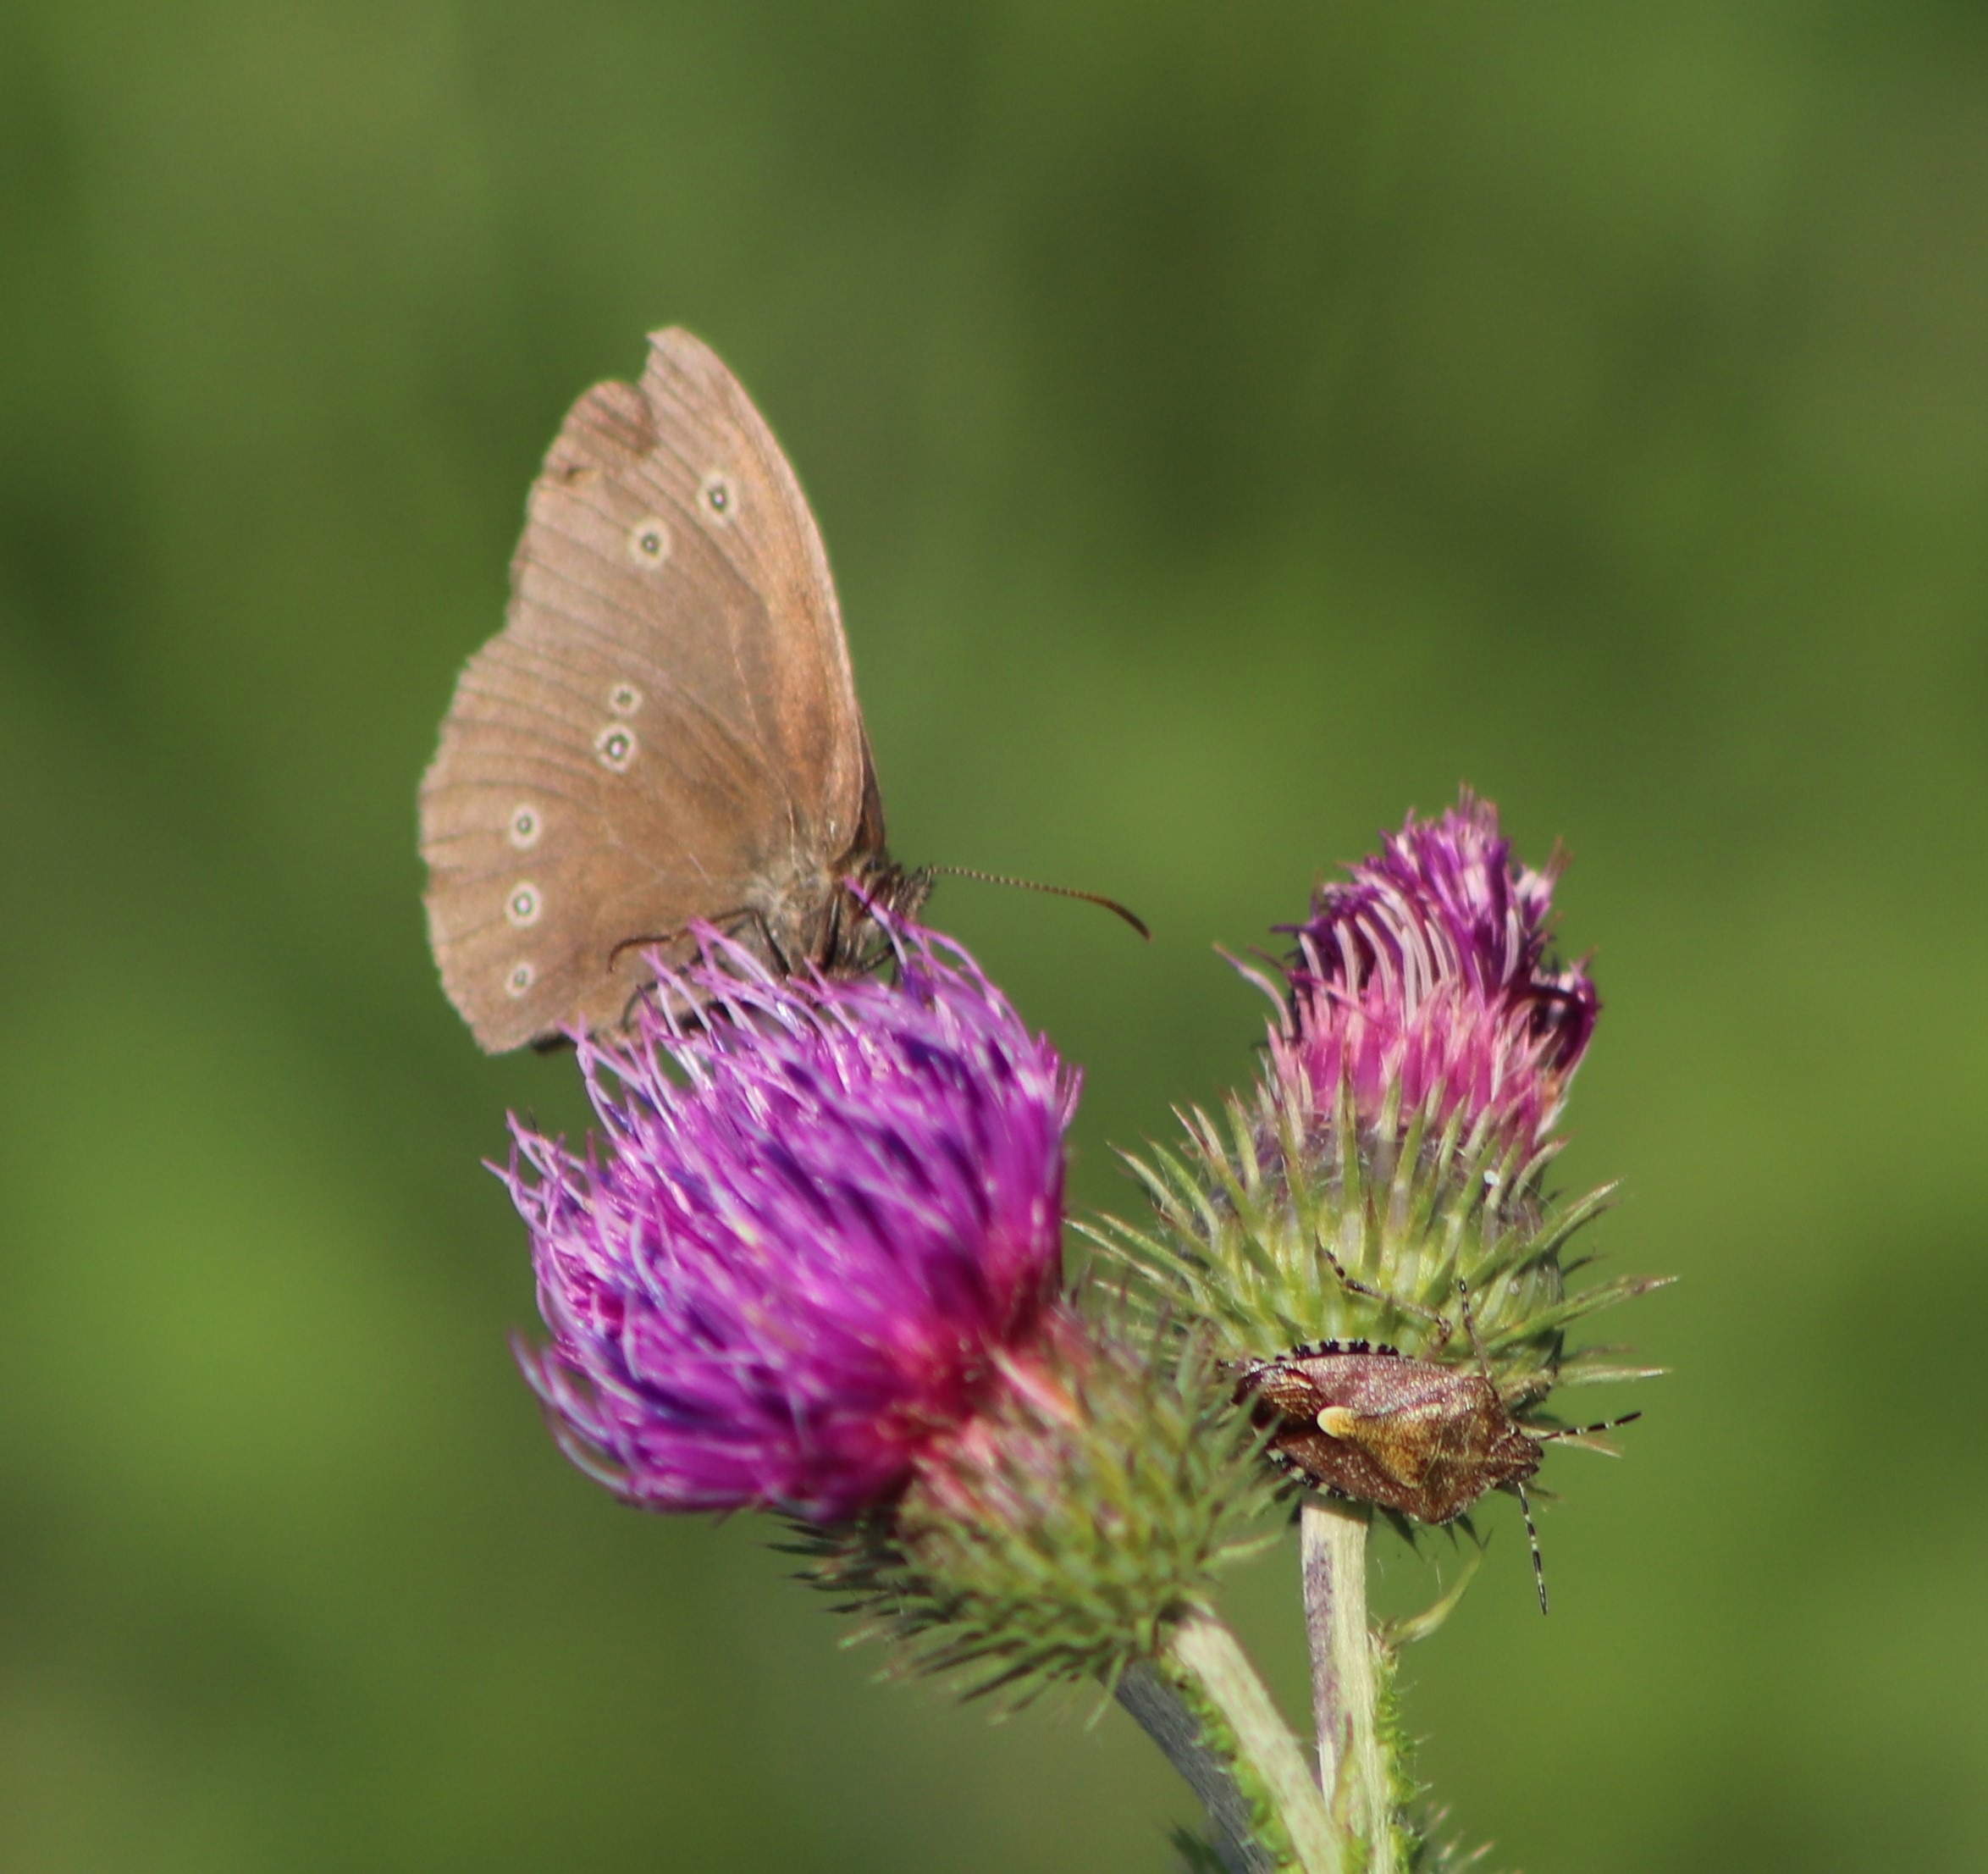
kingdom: Animalia
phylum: Arthropoda
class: Insecta
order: Lepidoptera
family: Nymphalidae
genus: Aphantopus
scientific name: Aphantopus hyperantus
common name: Engrandøje
